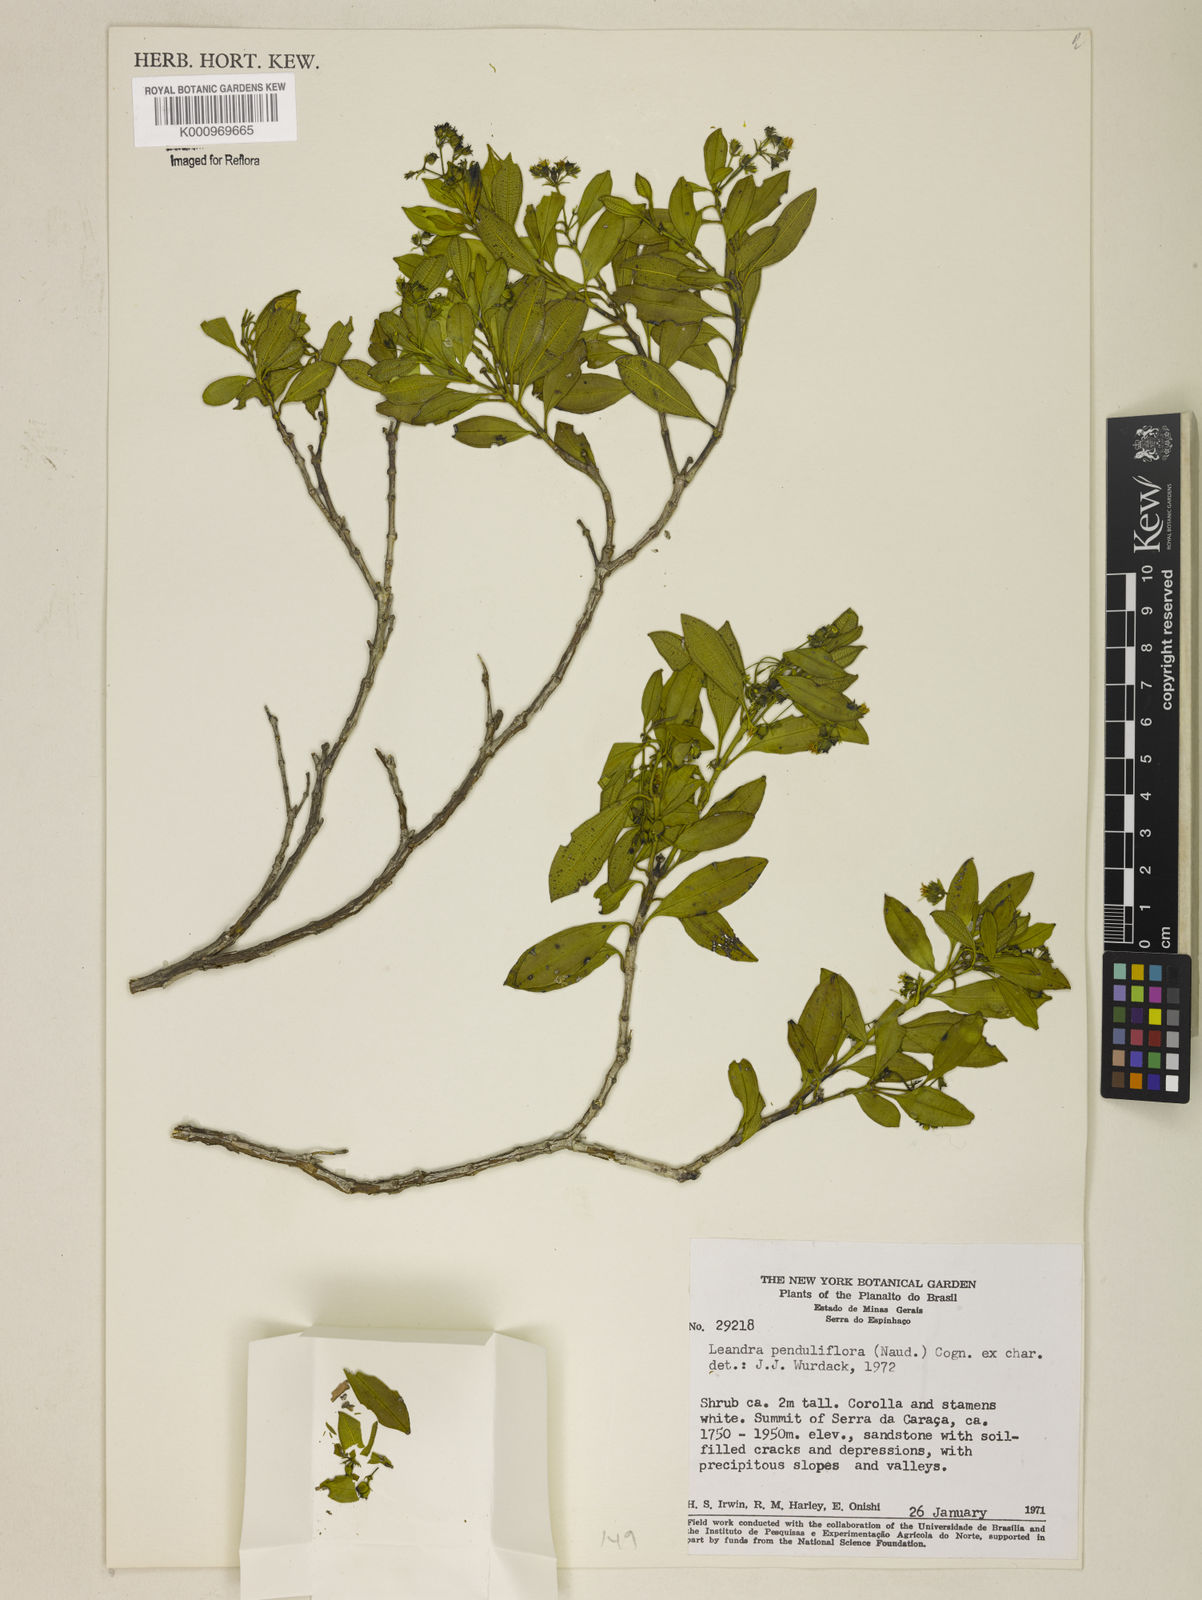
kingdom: Plantae
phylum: Tracheophyta
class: Magnoliopsida
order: Myrtales
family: Melastomataceae
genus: Miconia
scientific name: Miconia dolichodons
